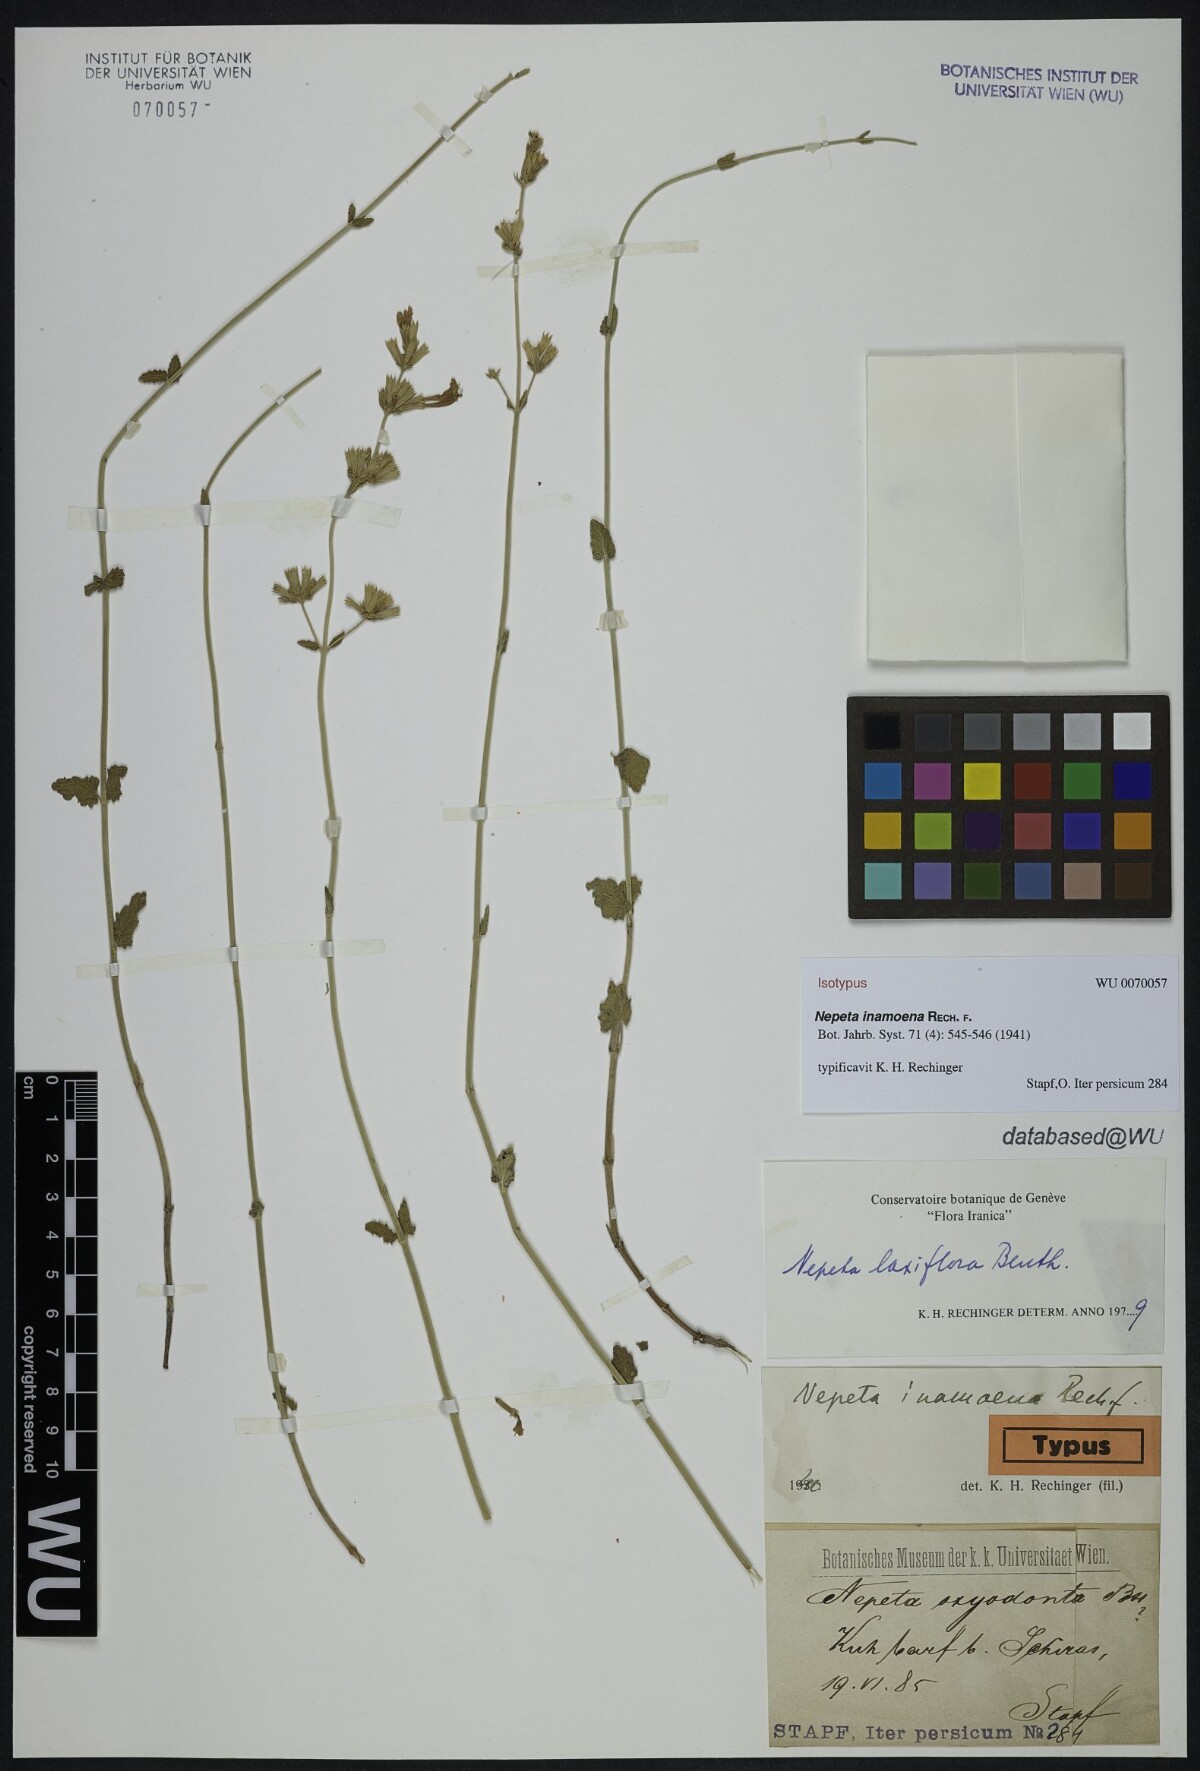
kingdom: Plantae
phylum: Tracheophyta
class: Magnoliopsida
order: Lamiales
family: Lamiaceae
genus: Nepeta
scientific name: Nepeta inamoena
